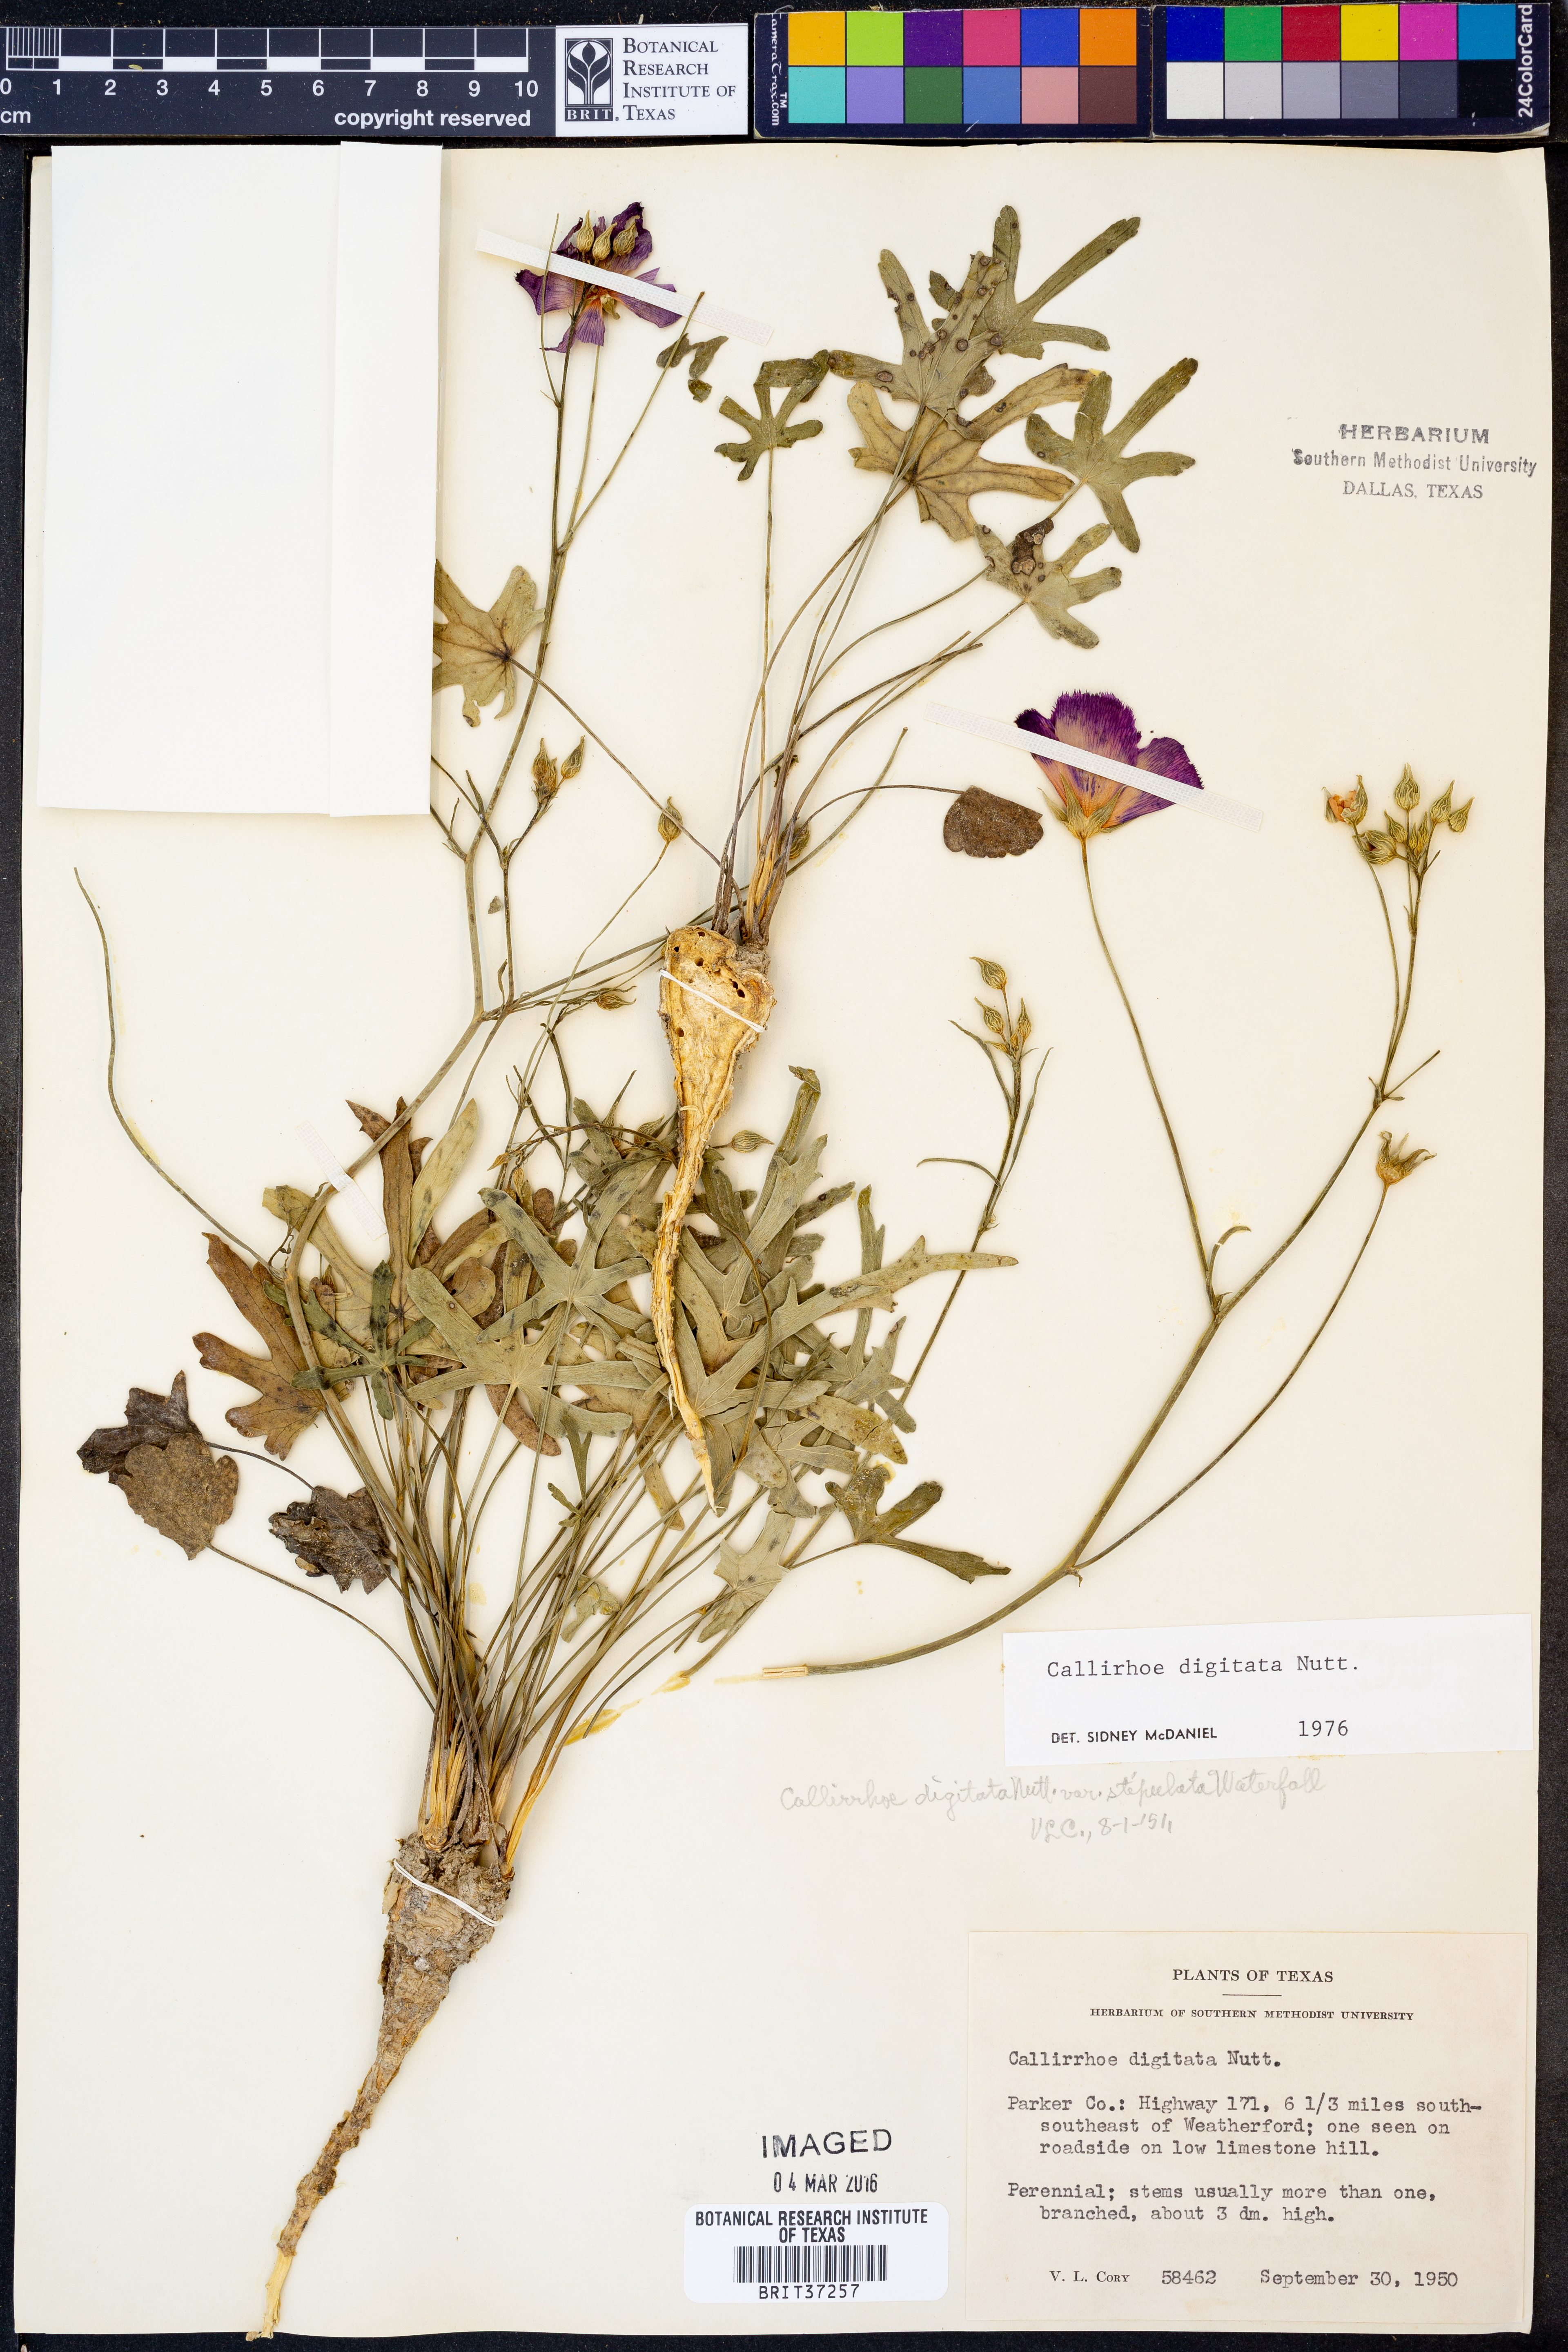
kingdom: Plantae
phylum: Tracheophyta
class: Magnoliopsida
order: Malvales
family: Malvaceae
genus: Callirhoe
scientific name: Callirhoe digitata
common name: Finger poppy-mallow
